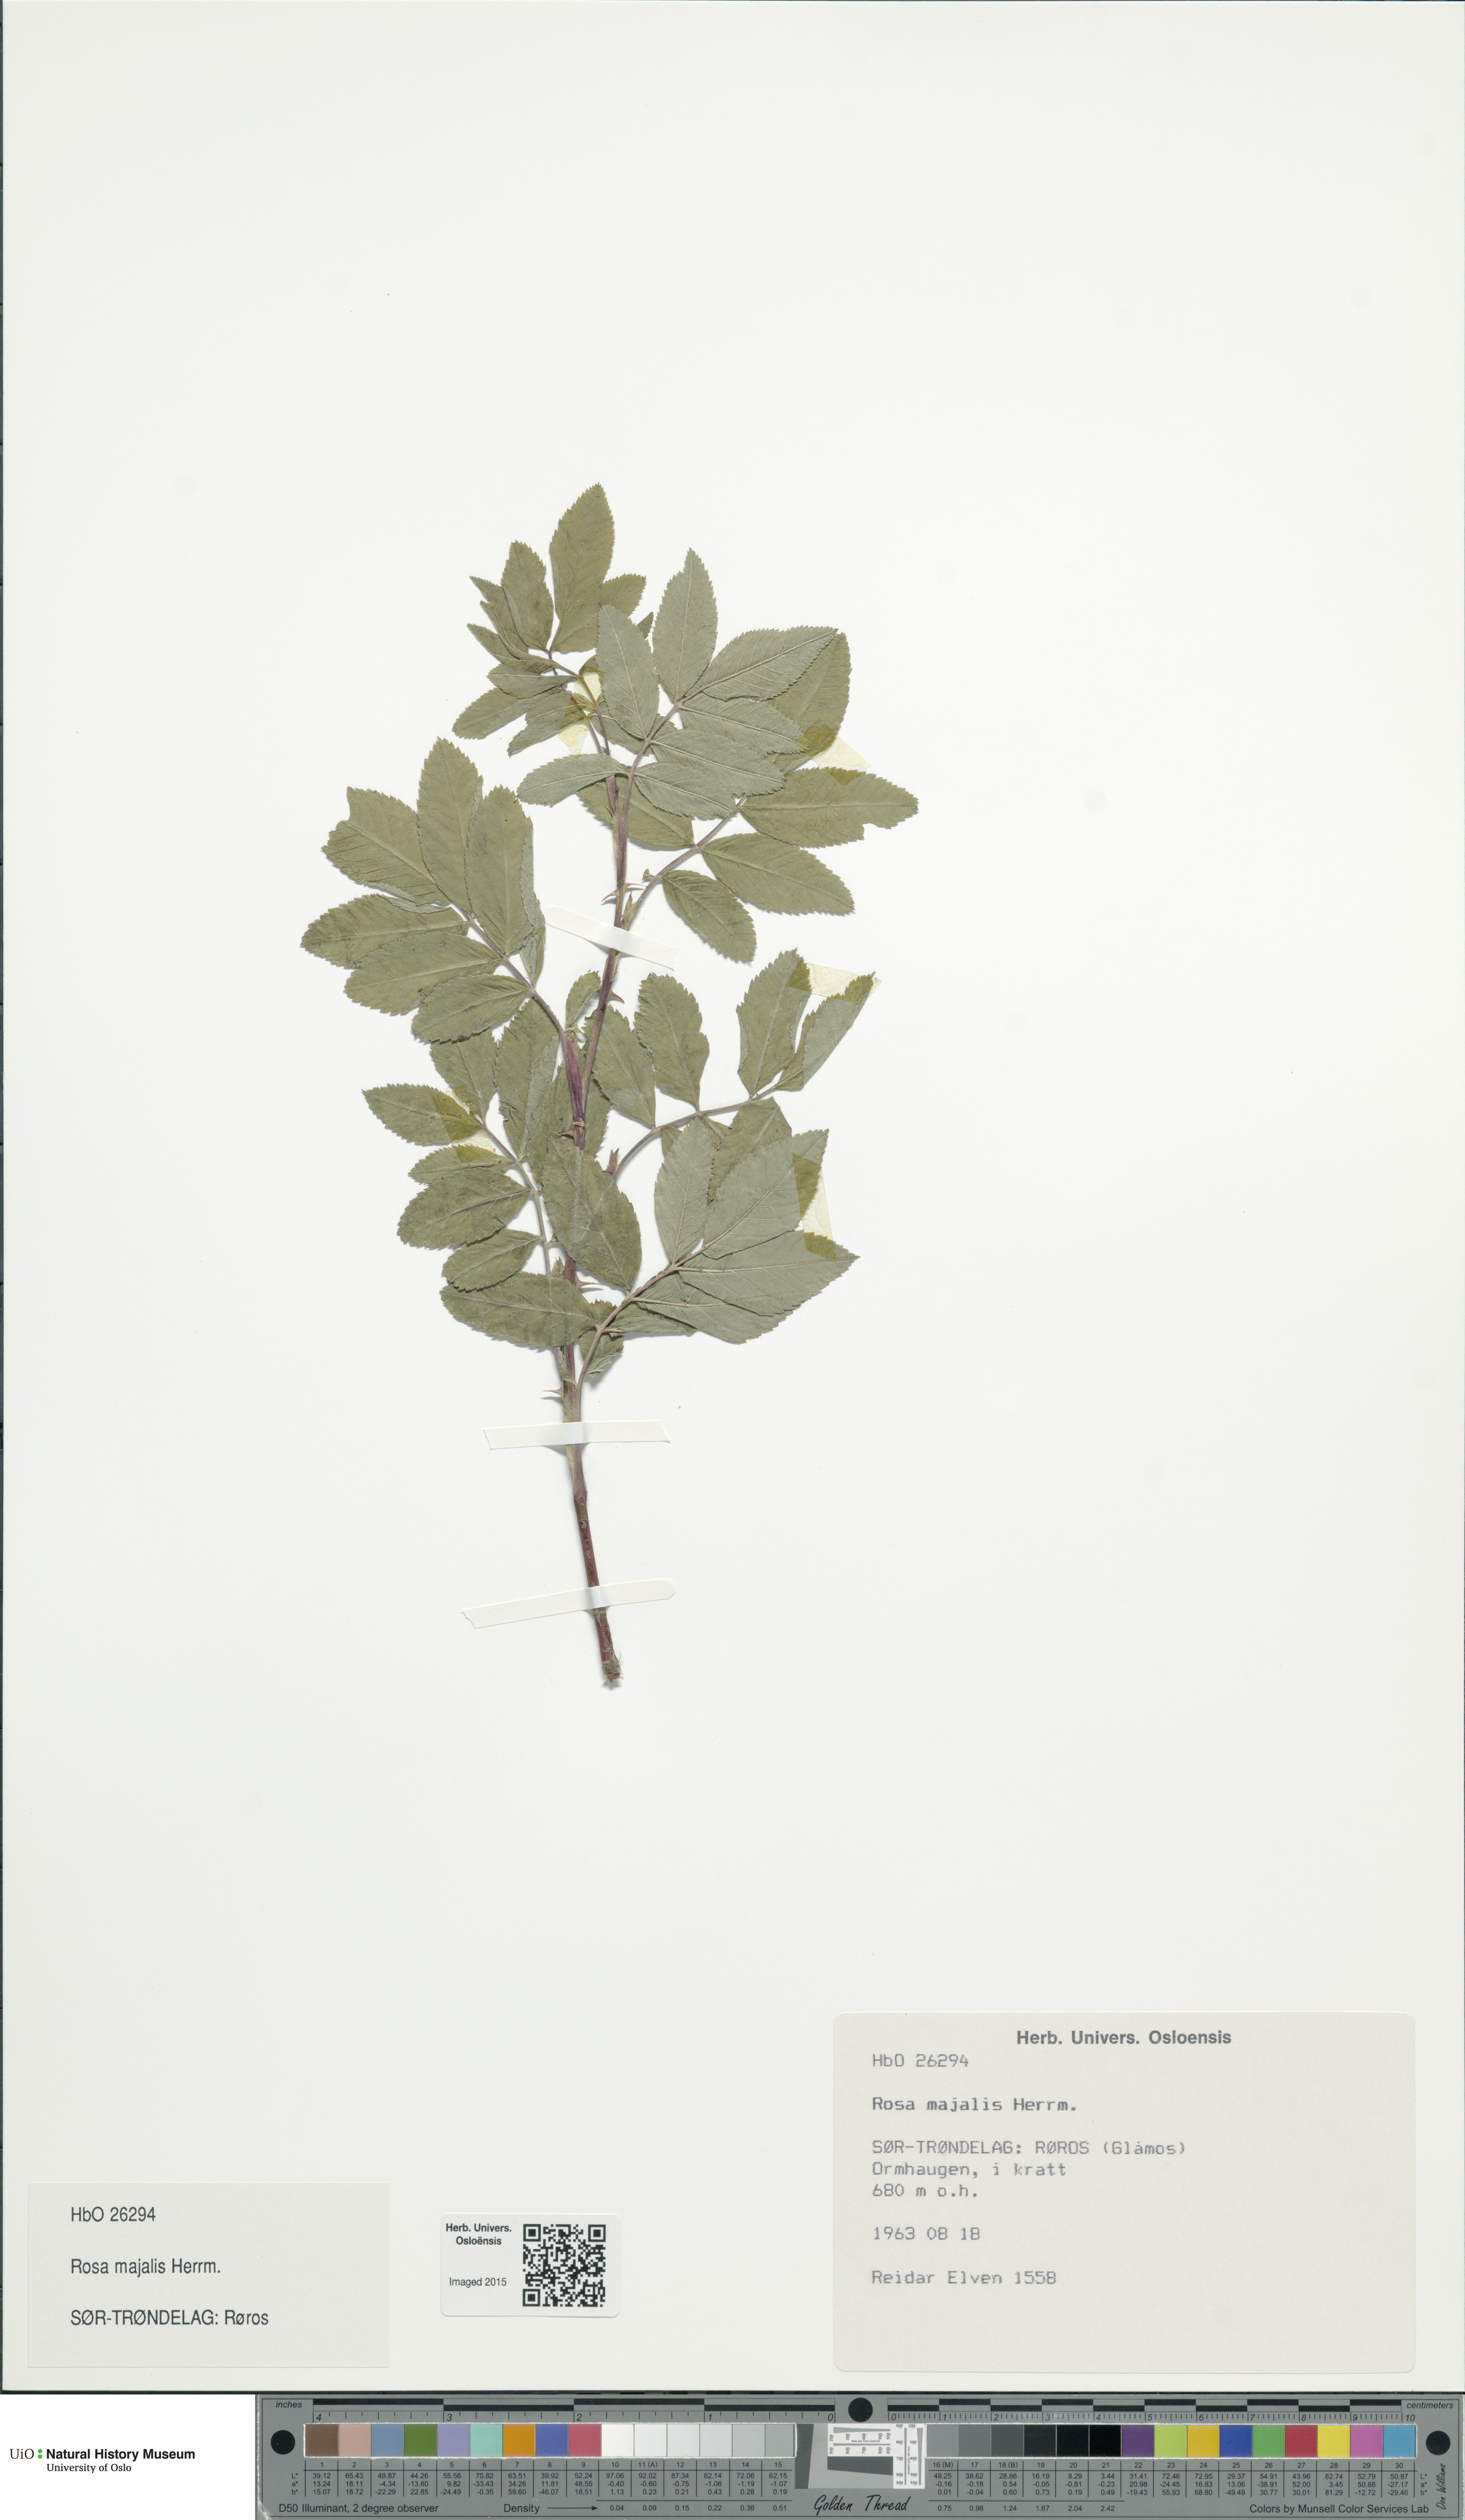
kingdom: Plantae
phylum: Tracheophyta
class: Magnoliopsida
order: Rosales
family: Rosaceae
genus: Rosa
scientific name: Rosa majalis
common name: Cinnamon rose
